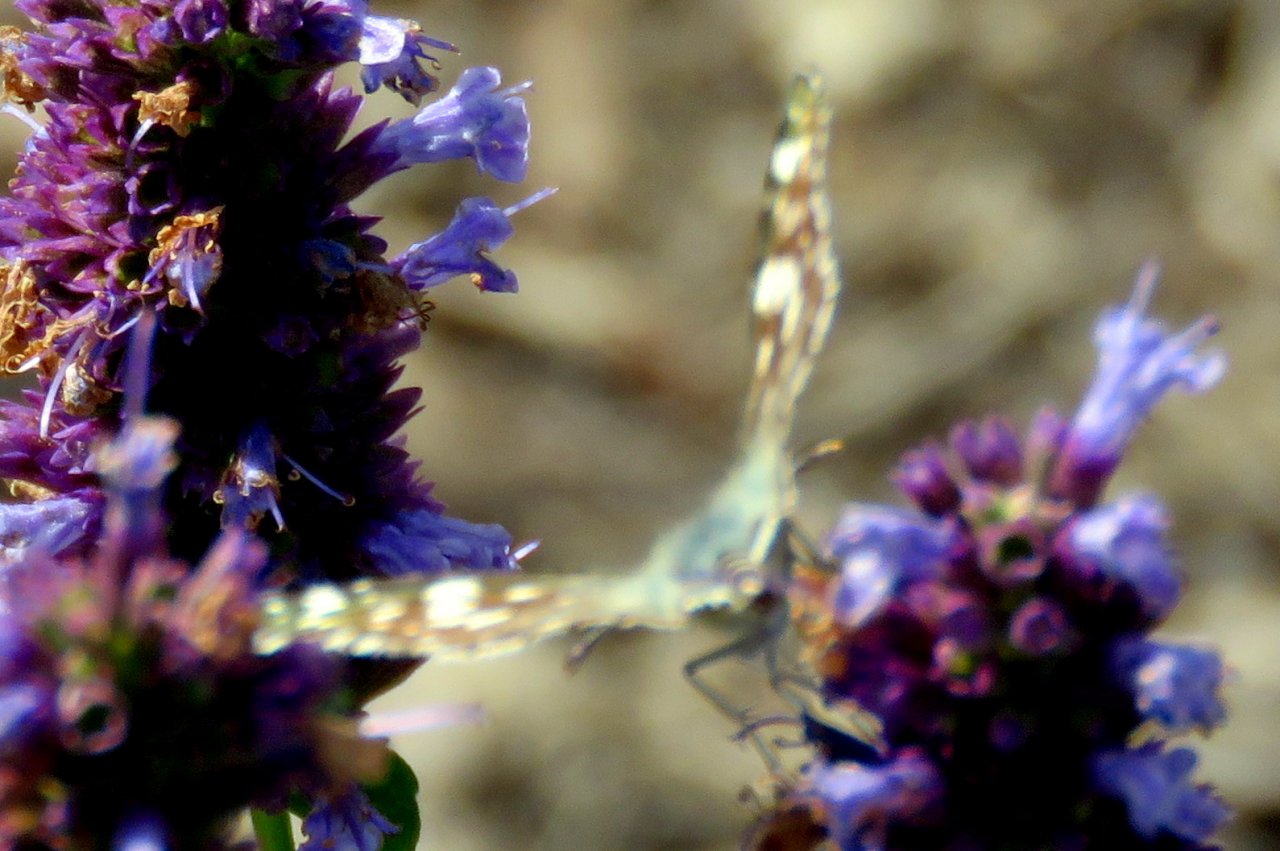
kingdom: Animalia
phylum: Arthropoda
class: Insecta
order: Lepidoptera
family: Hesperiidae
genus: Pyrgus
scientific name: Pyrgus communis
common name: Common Checkered-Skipper
